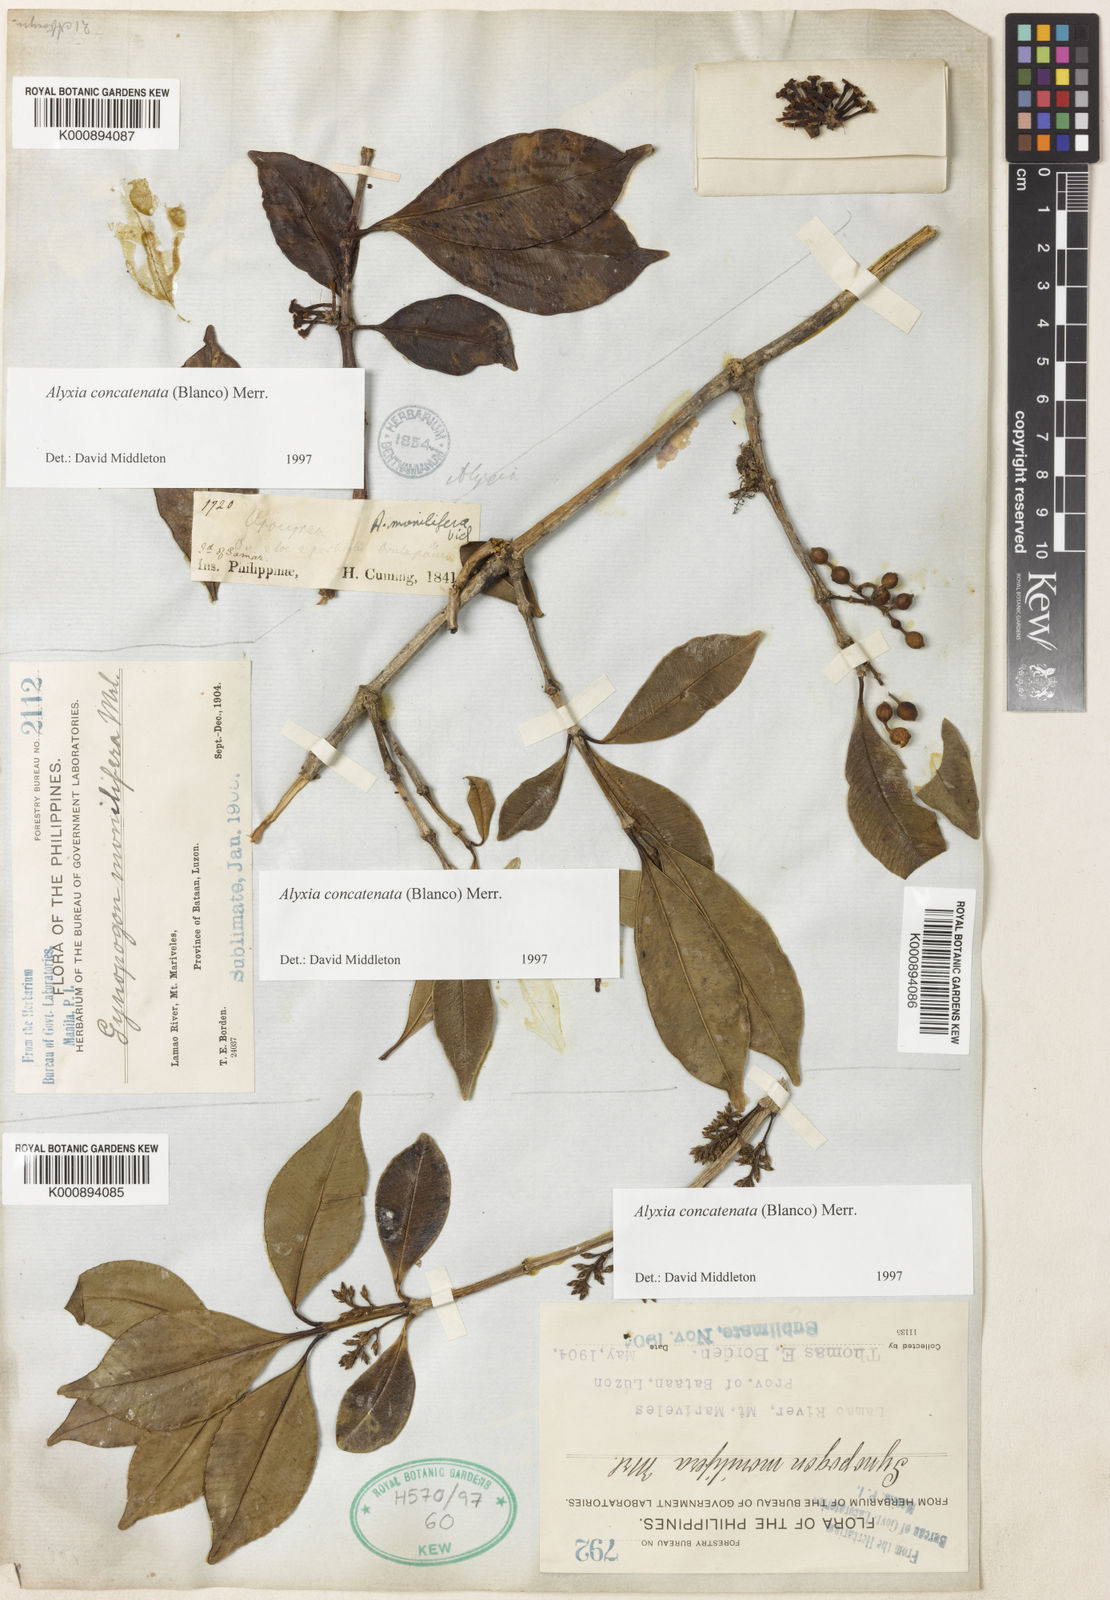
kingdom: Plantae
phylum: Tracheophyta
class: Magnoliopsida
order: Gentianales
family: Apocynaceae
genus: Alyxia
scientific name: Alyxia concatenata
